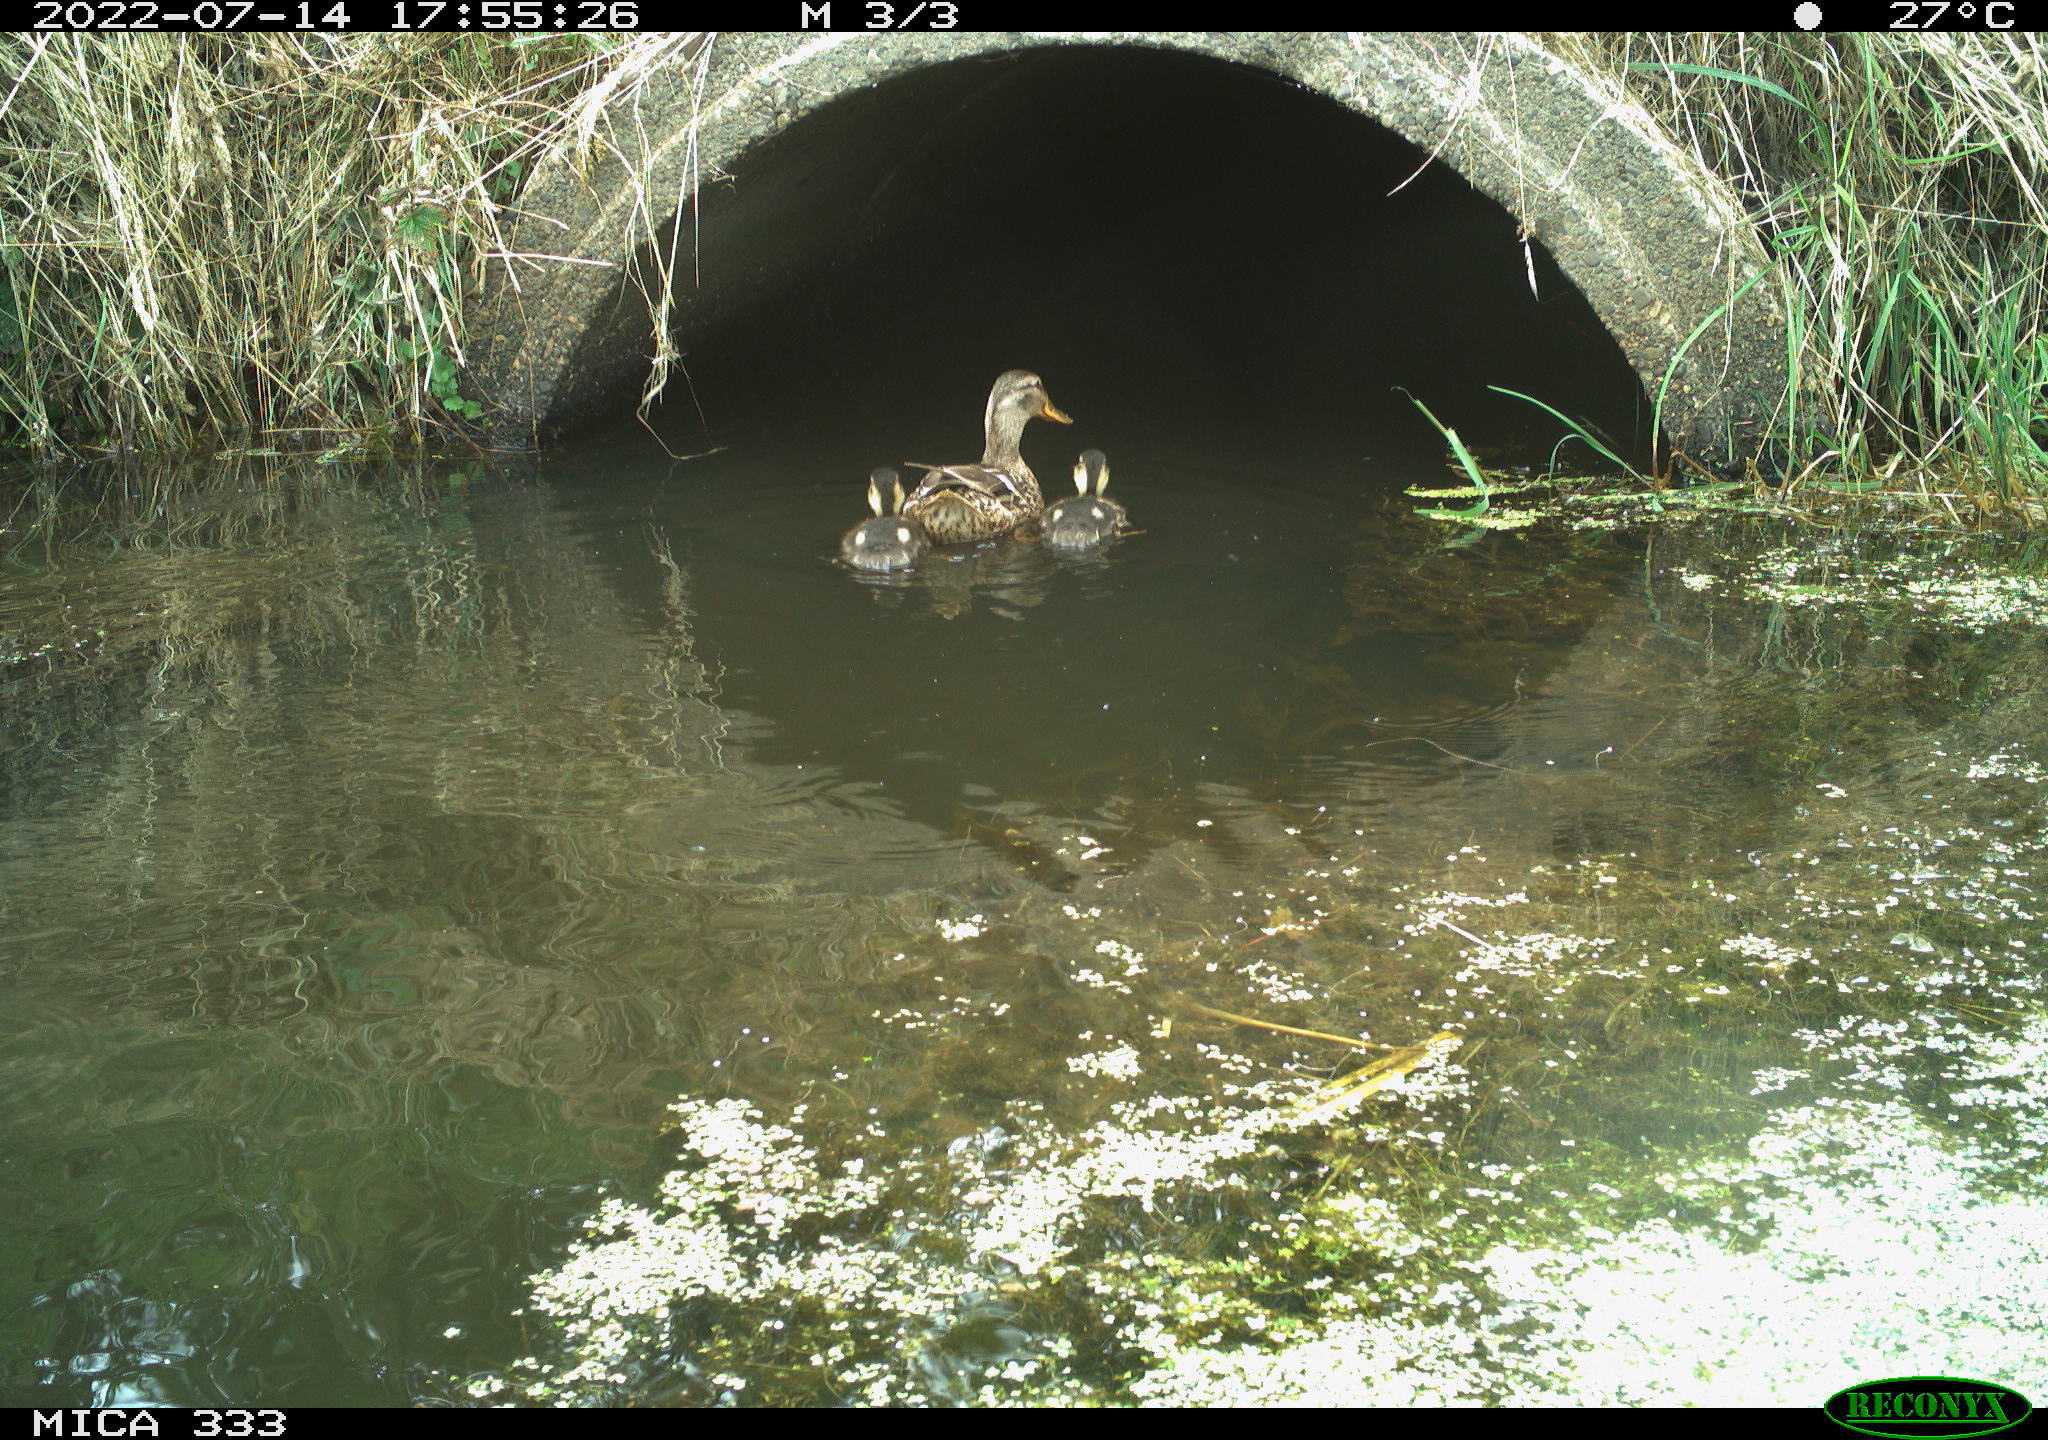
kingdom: Animalia
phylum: Chordata
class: Aves
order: Anseriformes
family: Anatidae
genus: Anas
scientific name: Anas platyrhynchos
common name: Mallard
